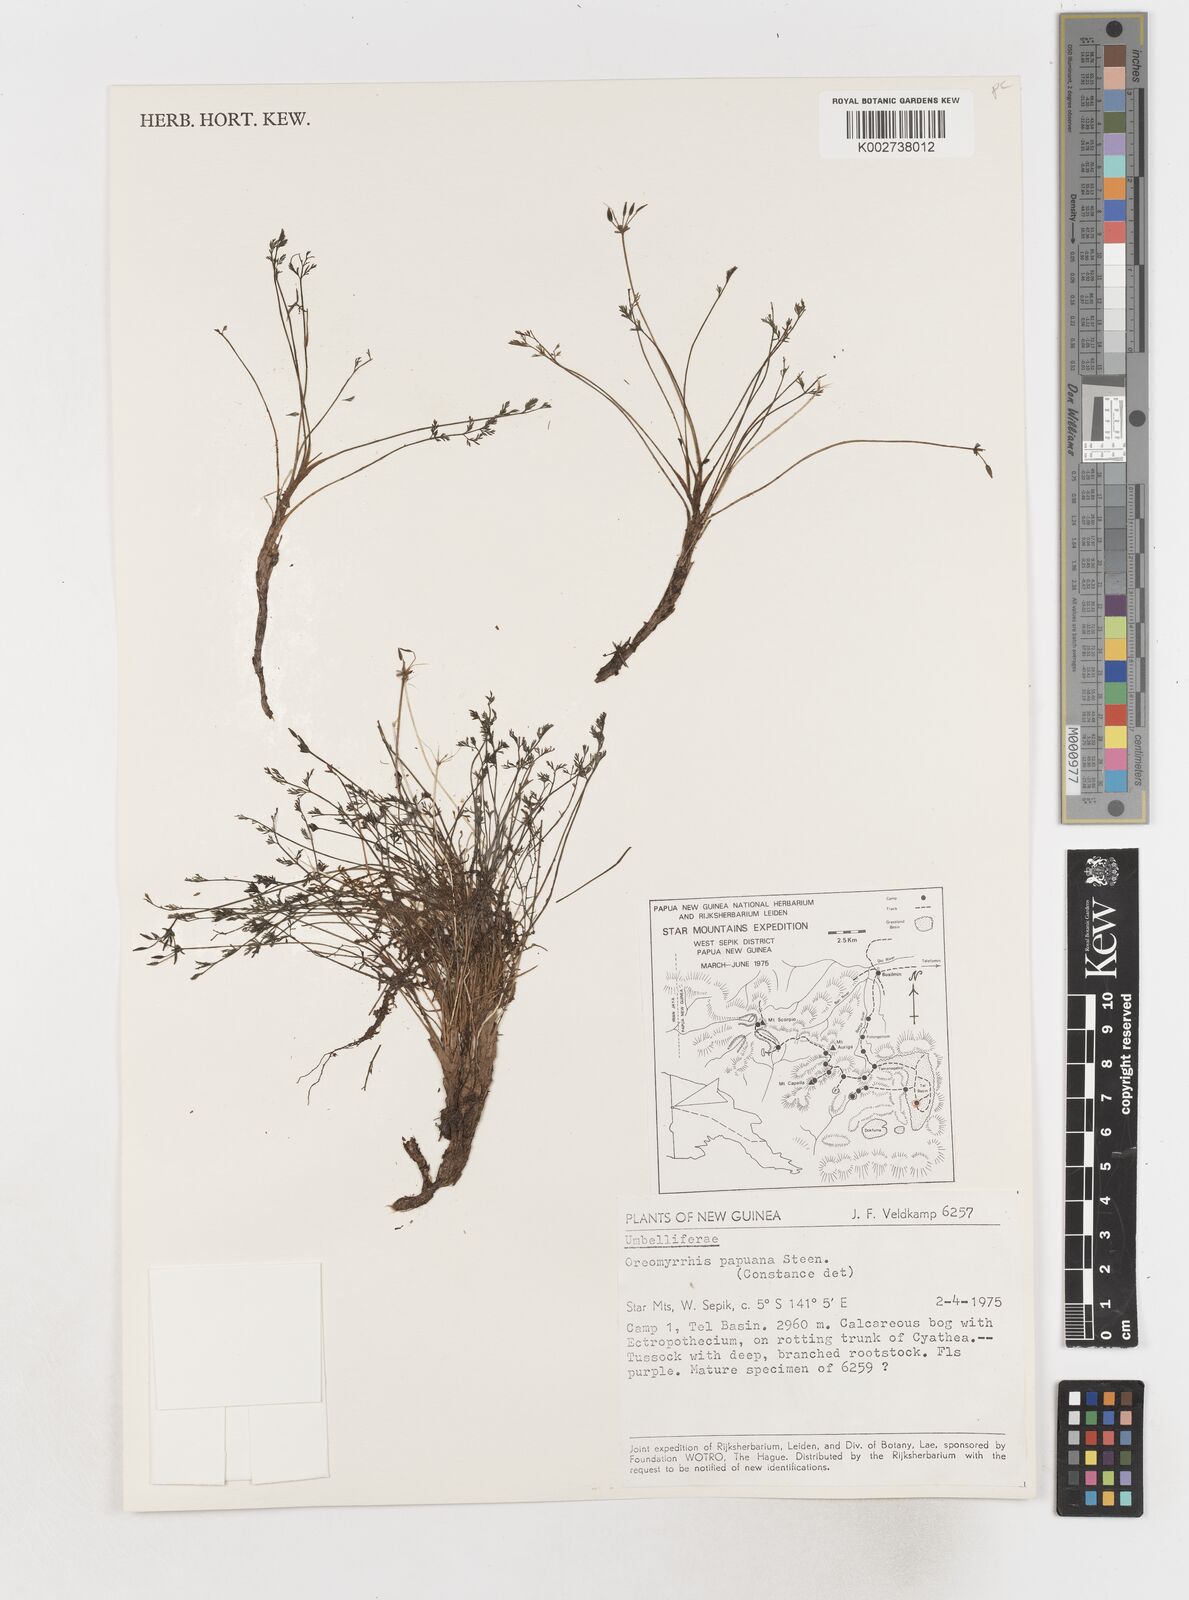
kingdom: Plantae
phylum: Tracheophyta
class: Magnoliopsida
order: Apiales
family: Apiaceae
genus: Chaerophyllum
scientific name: Chaerophyllum papuanum
